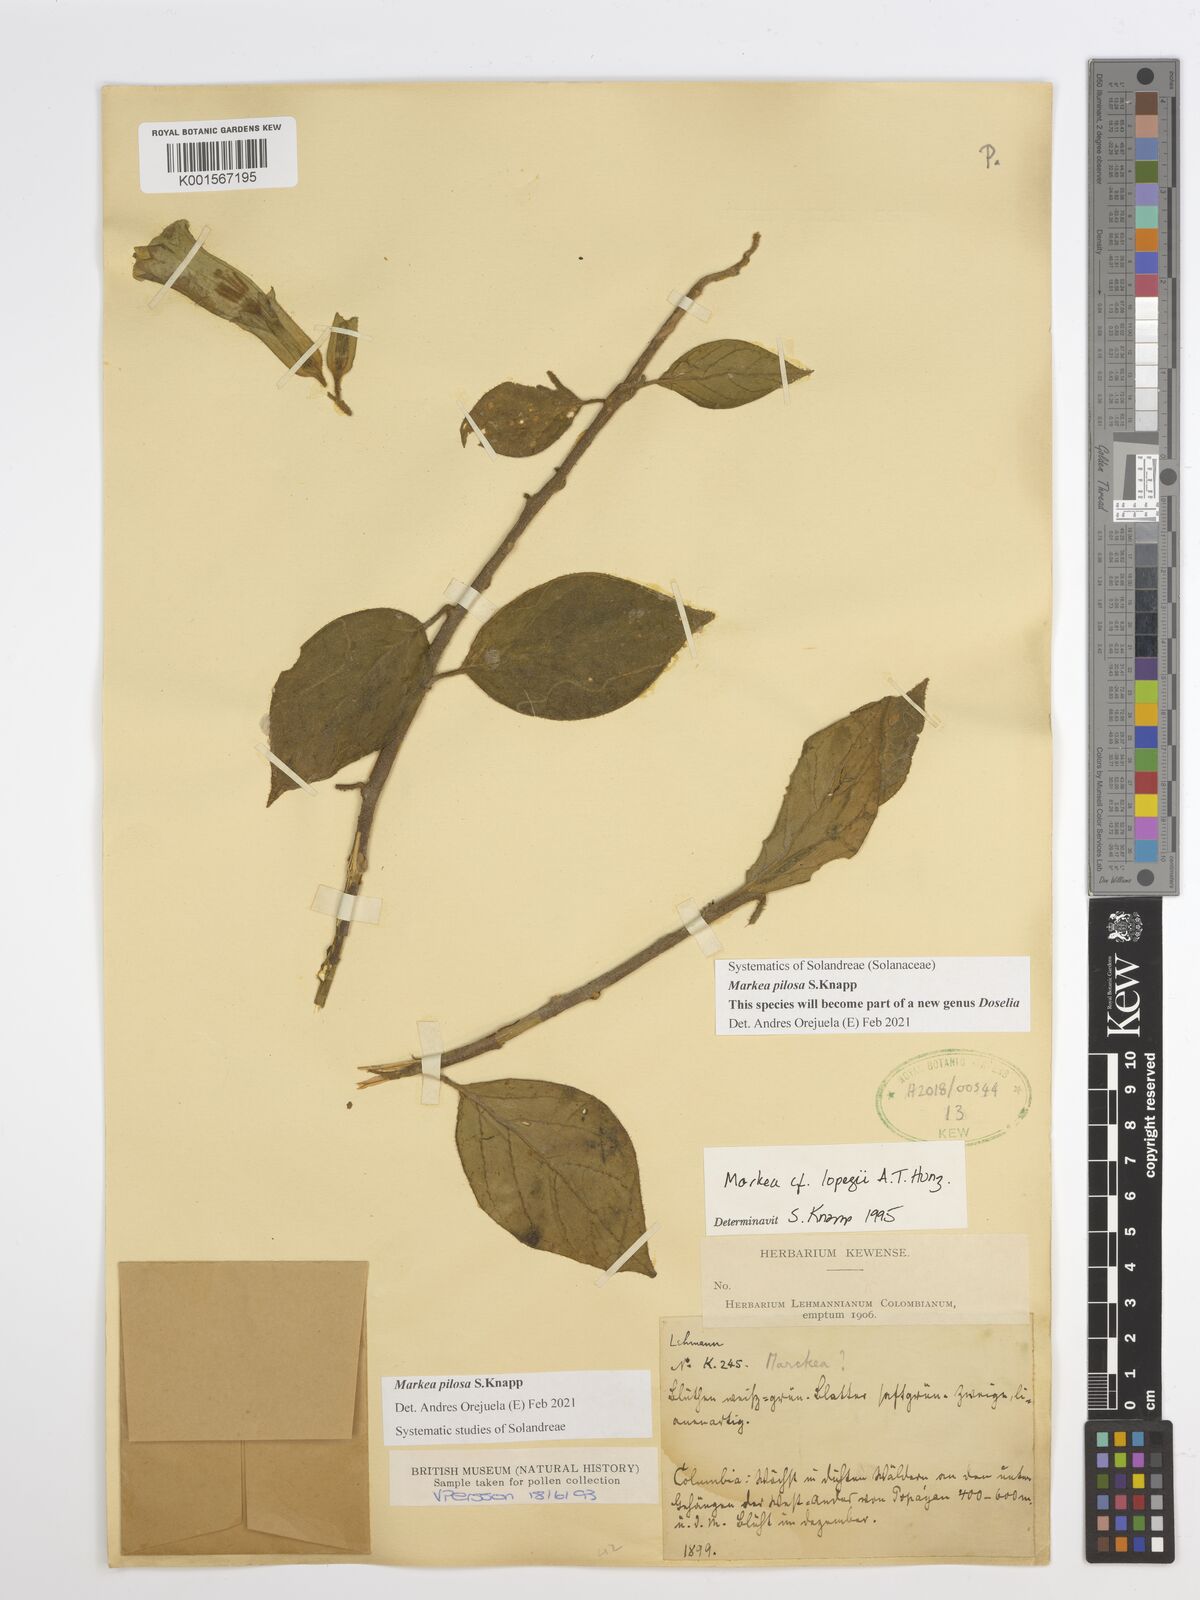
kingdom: Plantae
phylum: Tracheophyta
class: Magnoliopsida
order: Solanales
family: Solanaceae
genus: Markea
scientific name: Markea pilosa
